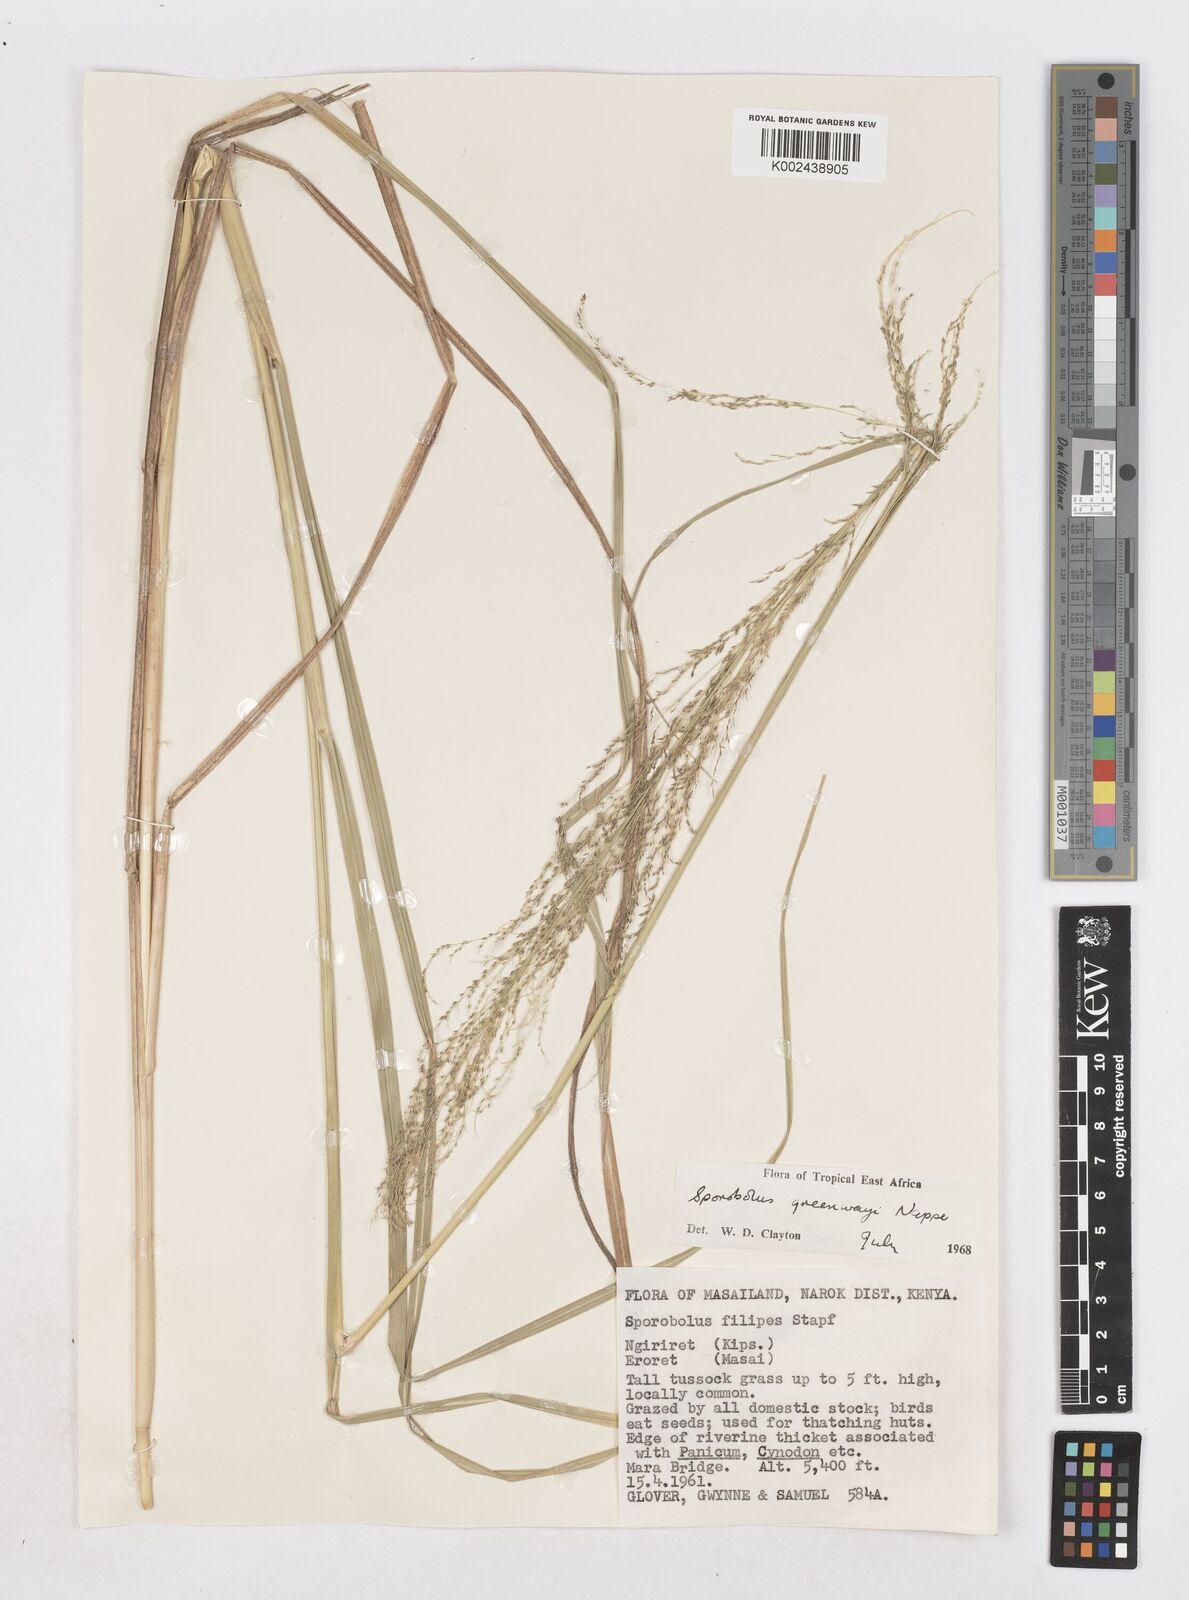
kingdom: Plantae
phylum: Tracheophyta
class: Liliopsida
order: Poales
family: Poaceae
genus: Sporobolus
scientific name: Sporobolus macranthelus
